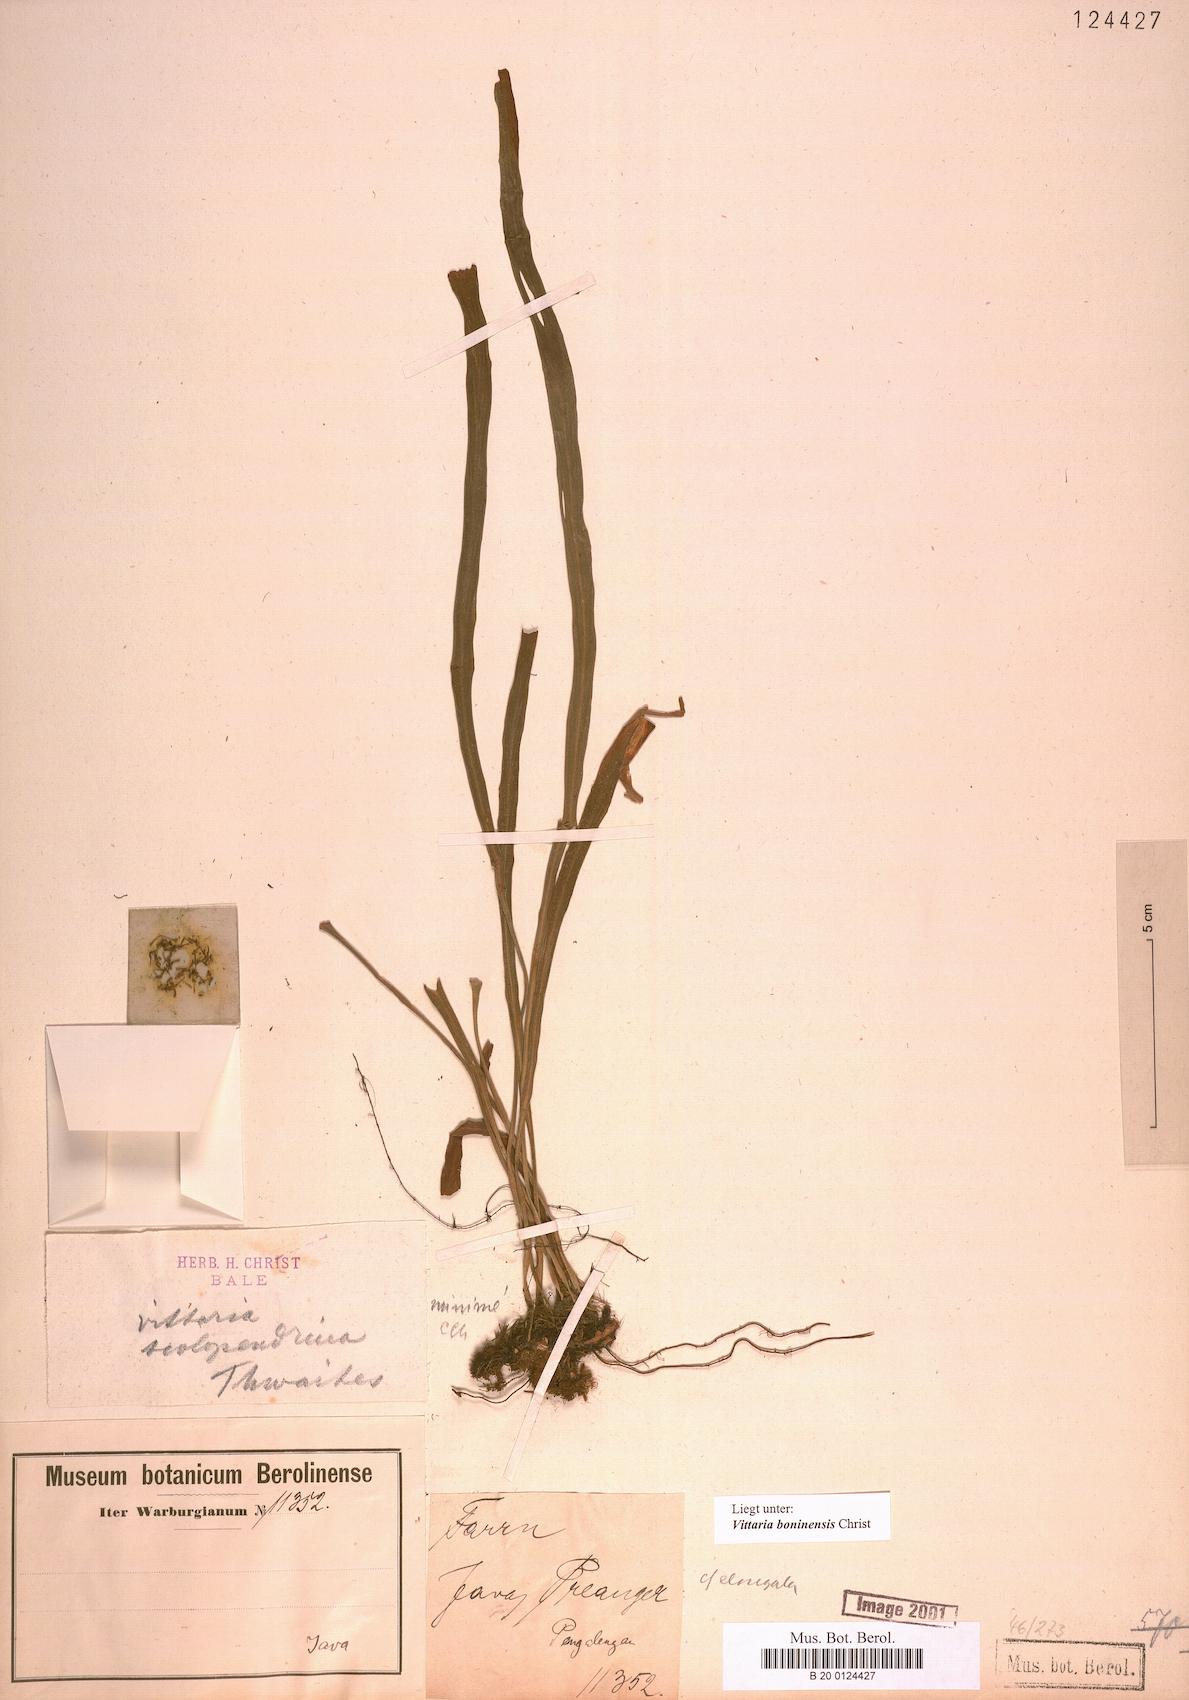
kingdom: Plantae
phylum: Tracheophyta
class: Polypodiopsida
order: Polypodiales
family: Pteridaceae
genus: Haplopteris
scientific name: Haplopteris elongata
